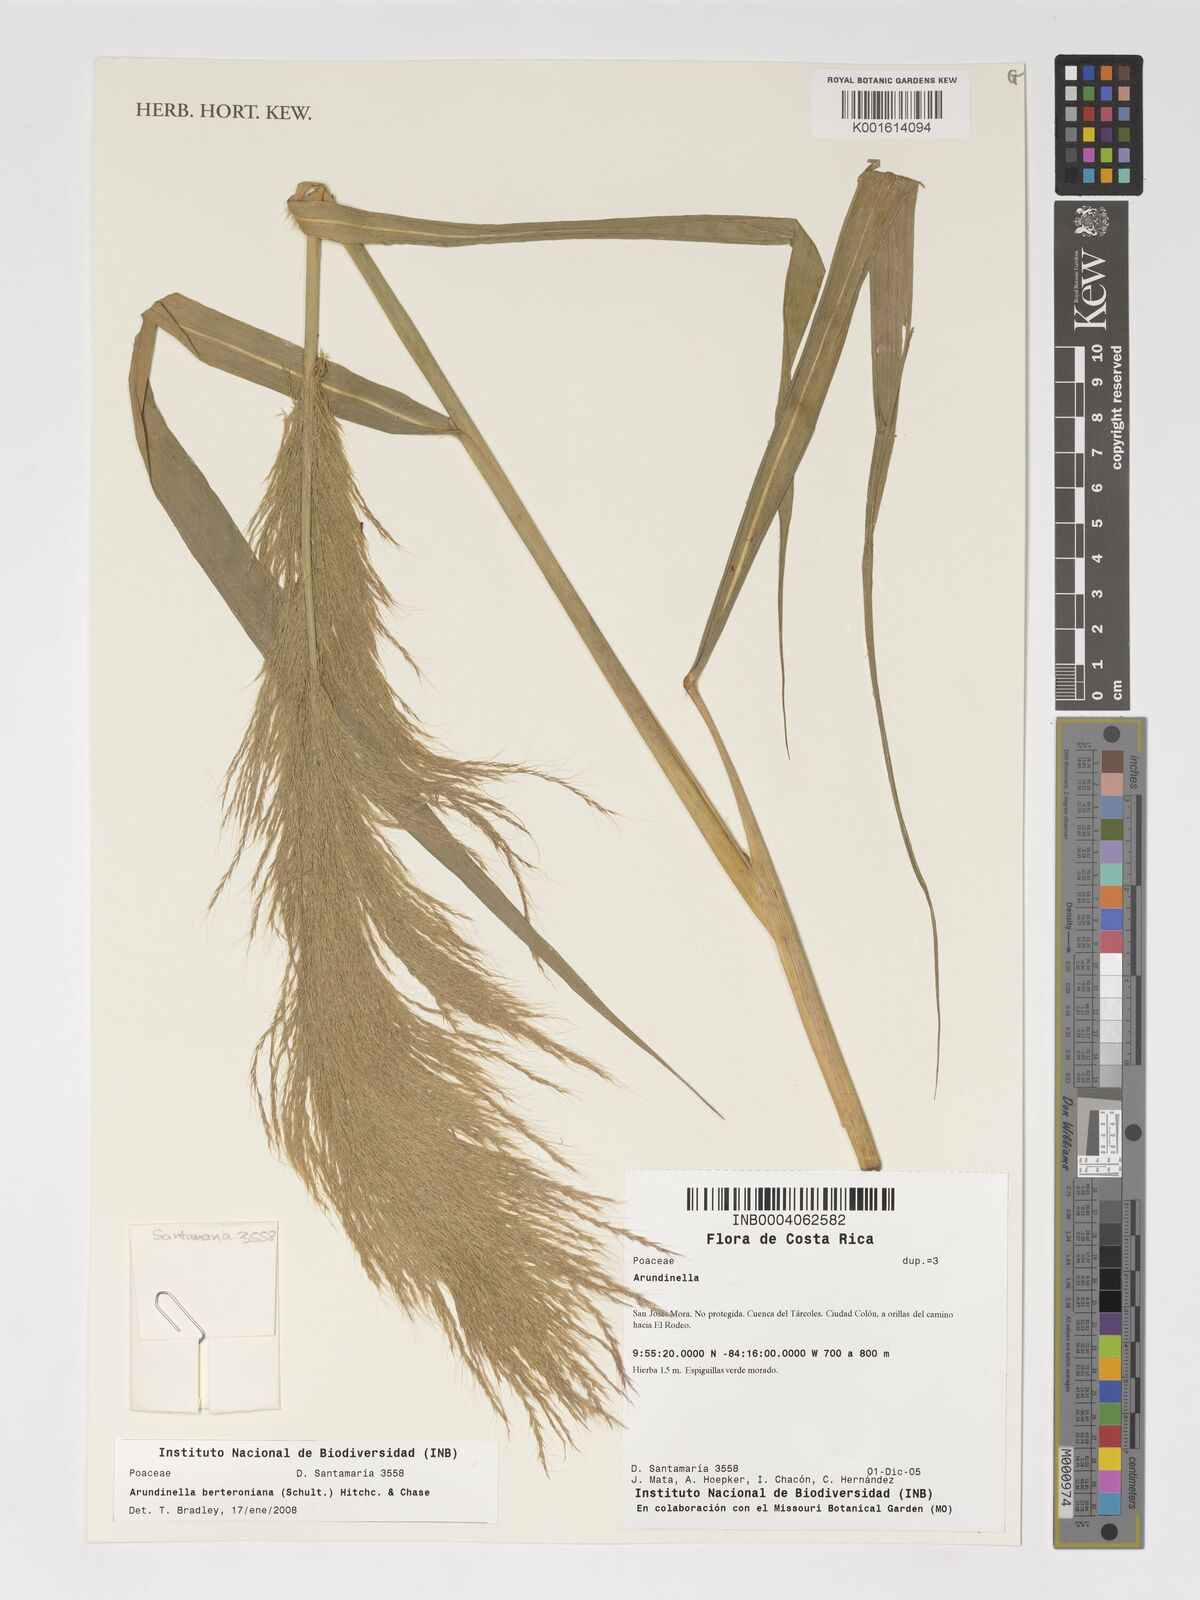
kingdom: Plantae
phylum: Tracheophyta
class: Liliopsida
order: Poales
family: Poaceae
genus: Arundinella
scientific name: Arundinella berteroniana
